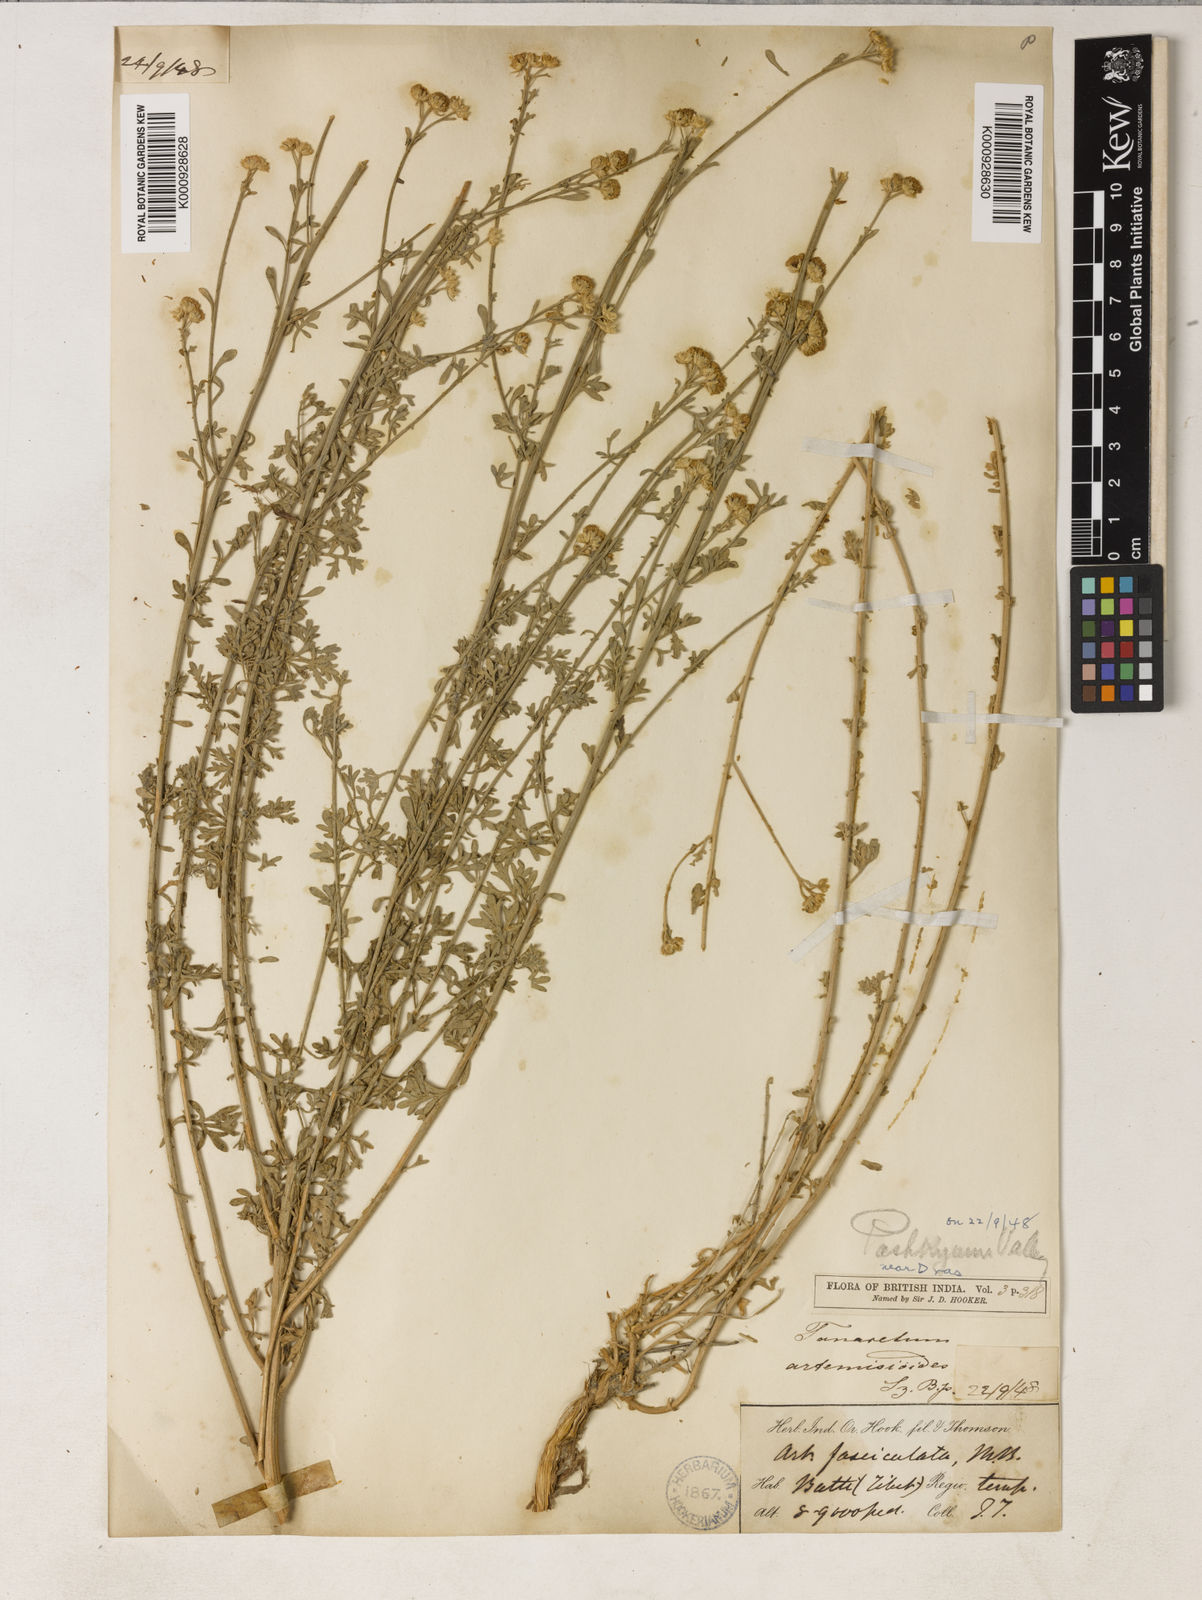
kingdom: Plantae
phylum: Tracheophyta
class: Magnoliopsida
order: Asterales
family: Asteraceae
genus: Tanacetum
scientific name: Tanacetum artemisioides
